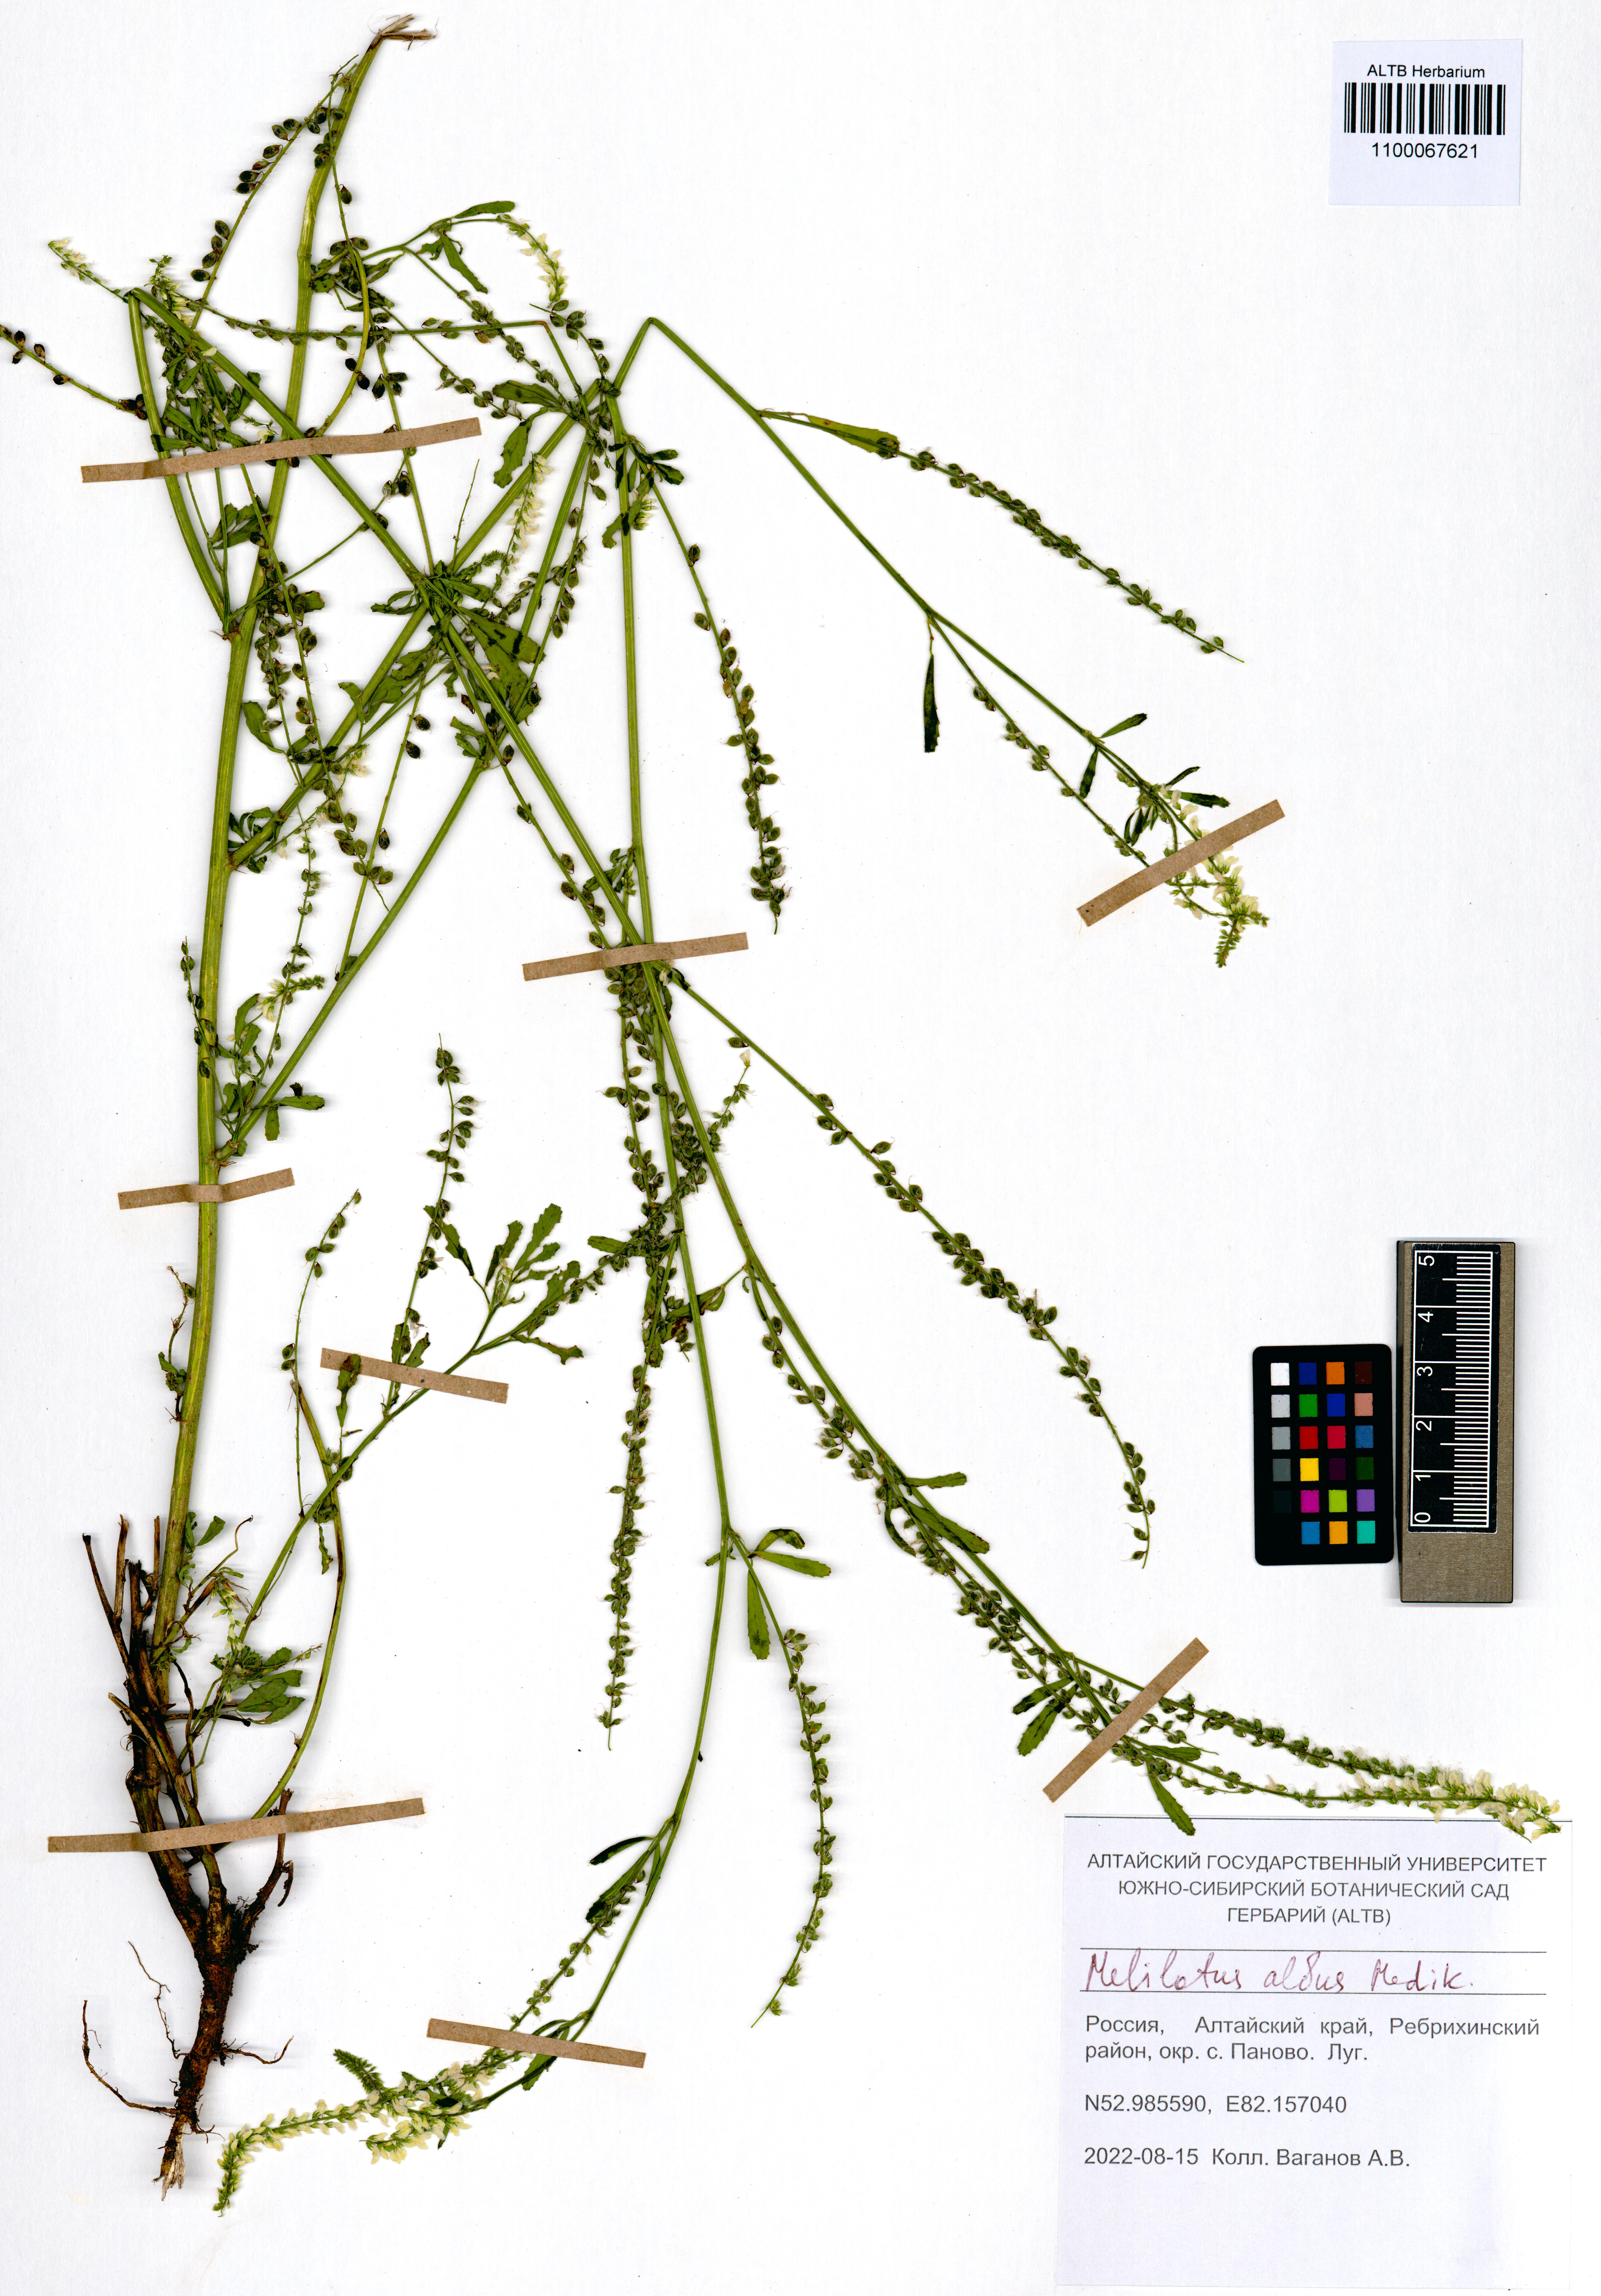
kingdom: Plantae
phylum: Tracheophyta
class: Magnoliopsida
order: Fabales
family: Fabaceae
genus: Melilotus
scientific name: Melilotus albus
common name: White melilot
